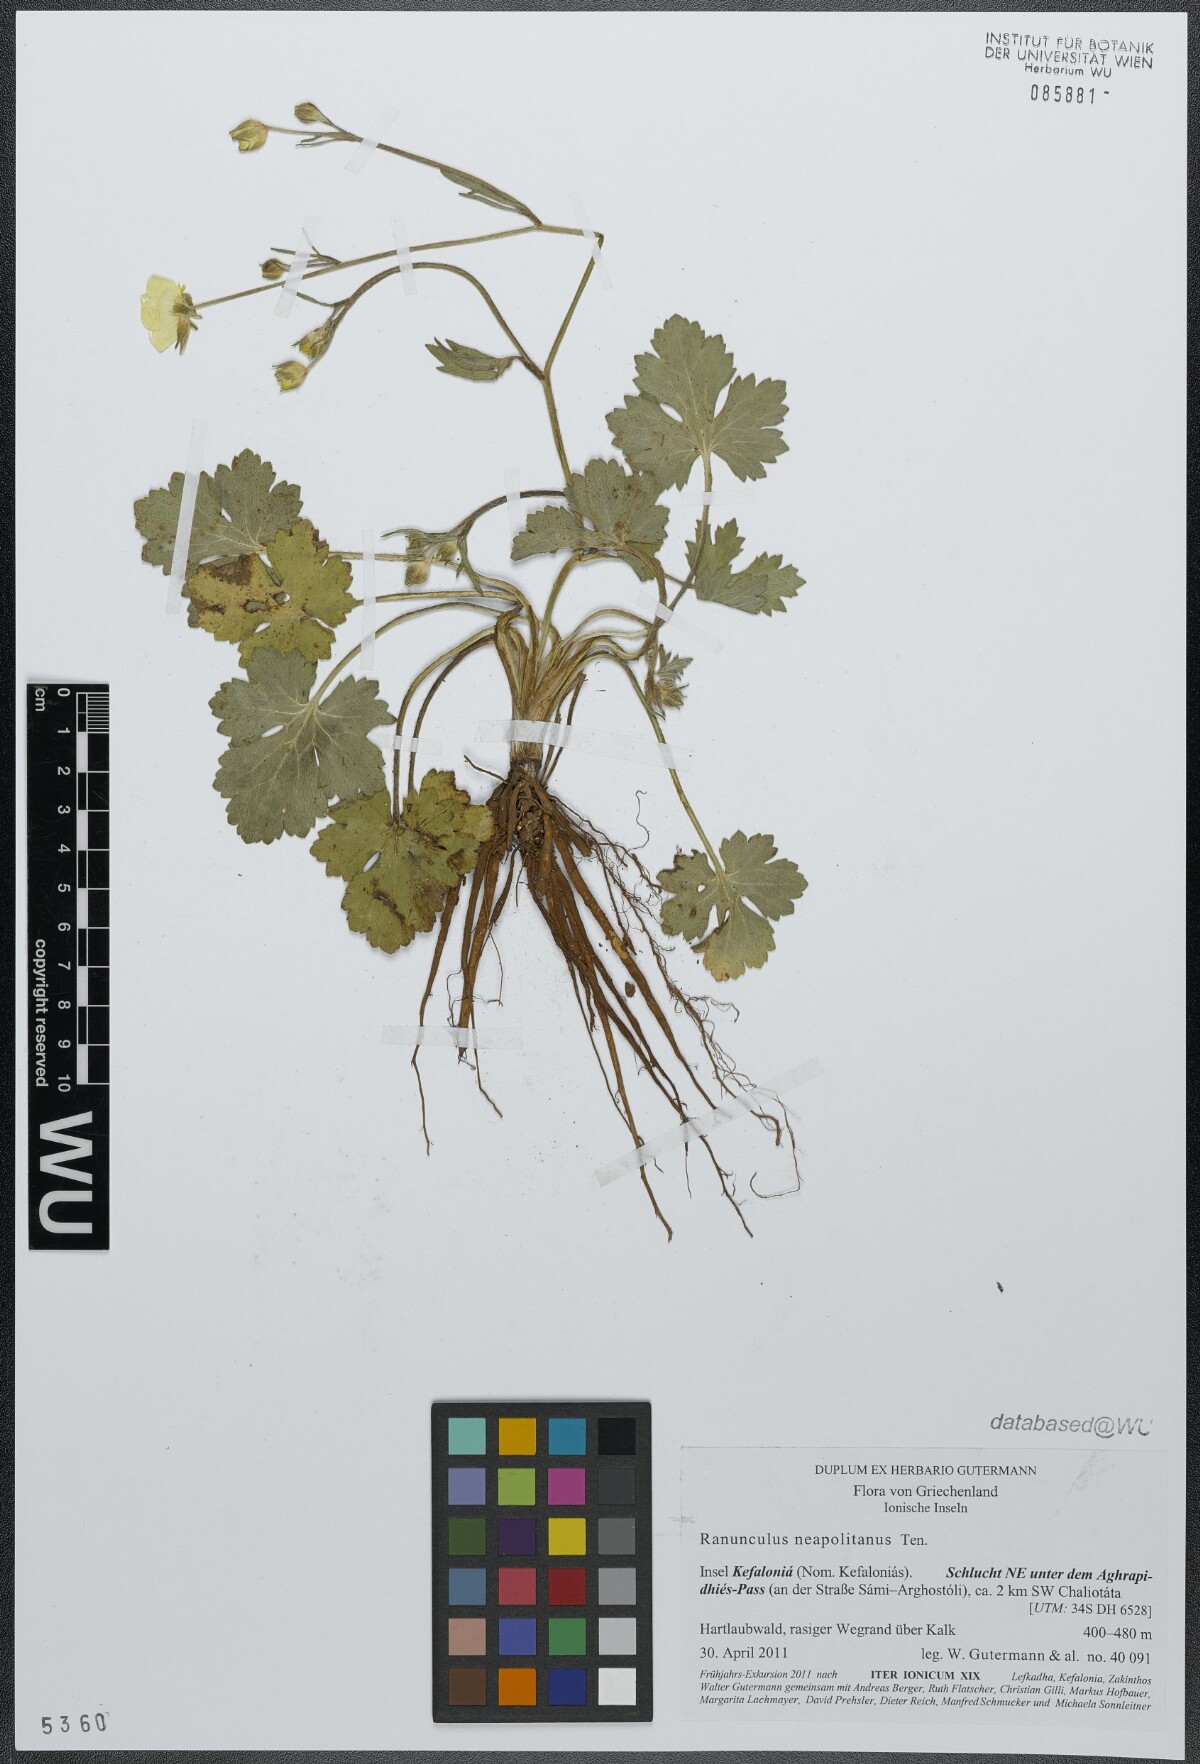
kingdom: Plantae
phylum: Tracheophyta
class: Magnoliopsida
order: Ranunculales
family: Ranunculaceae
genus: Ranunculus
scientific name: Ranunculus neapolitanus
